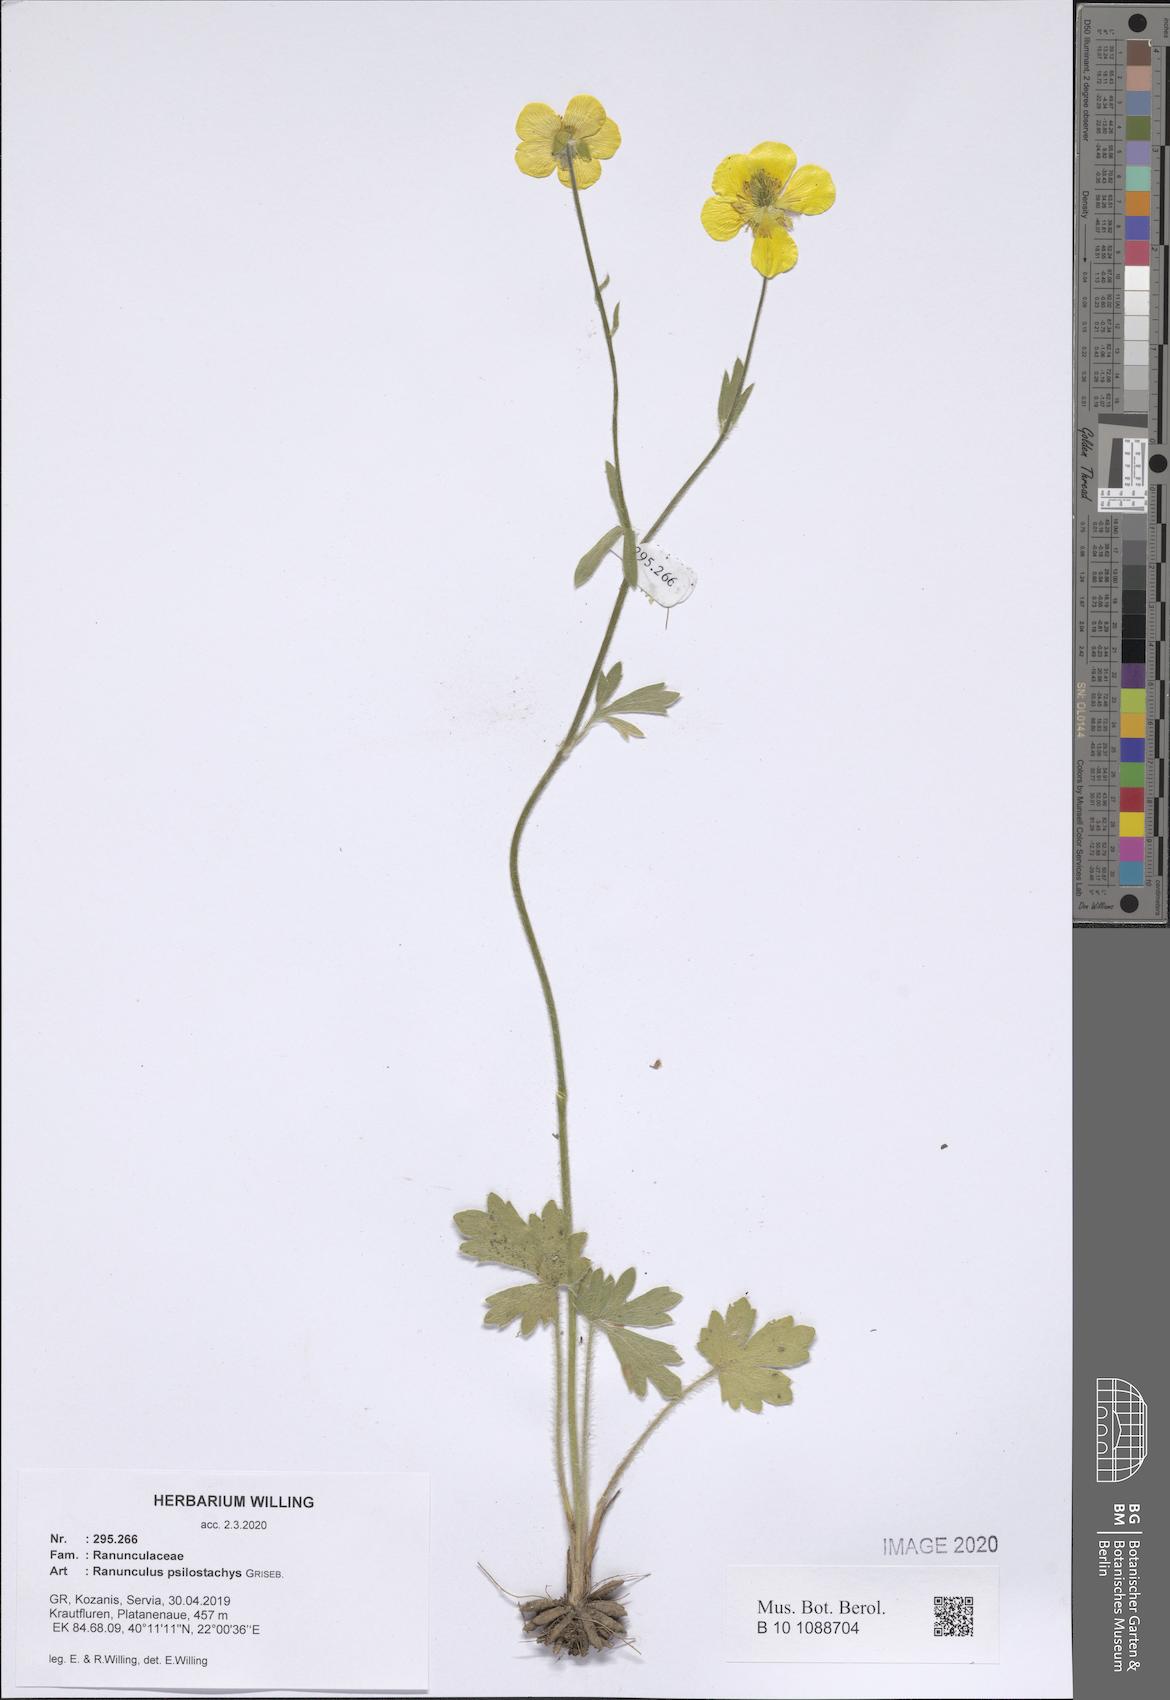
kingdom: Plantae
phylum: Tracheophyta
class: Magnoliopsida
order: Ranunculales
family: Ranunculaceae
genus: Ranunculus
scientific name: Ranunculus psilostachys
